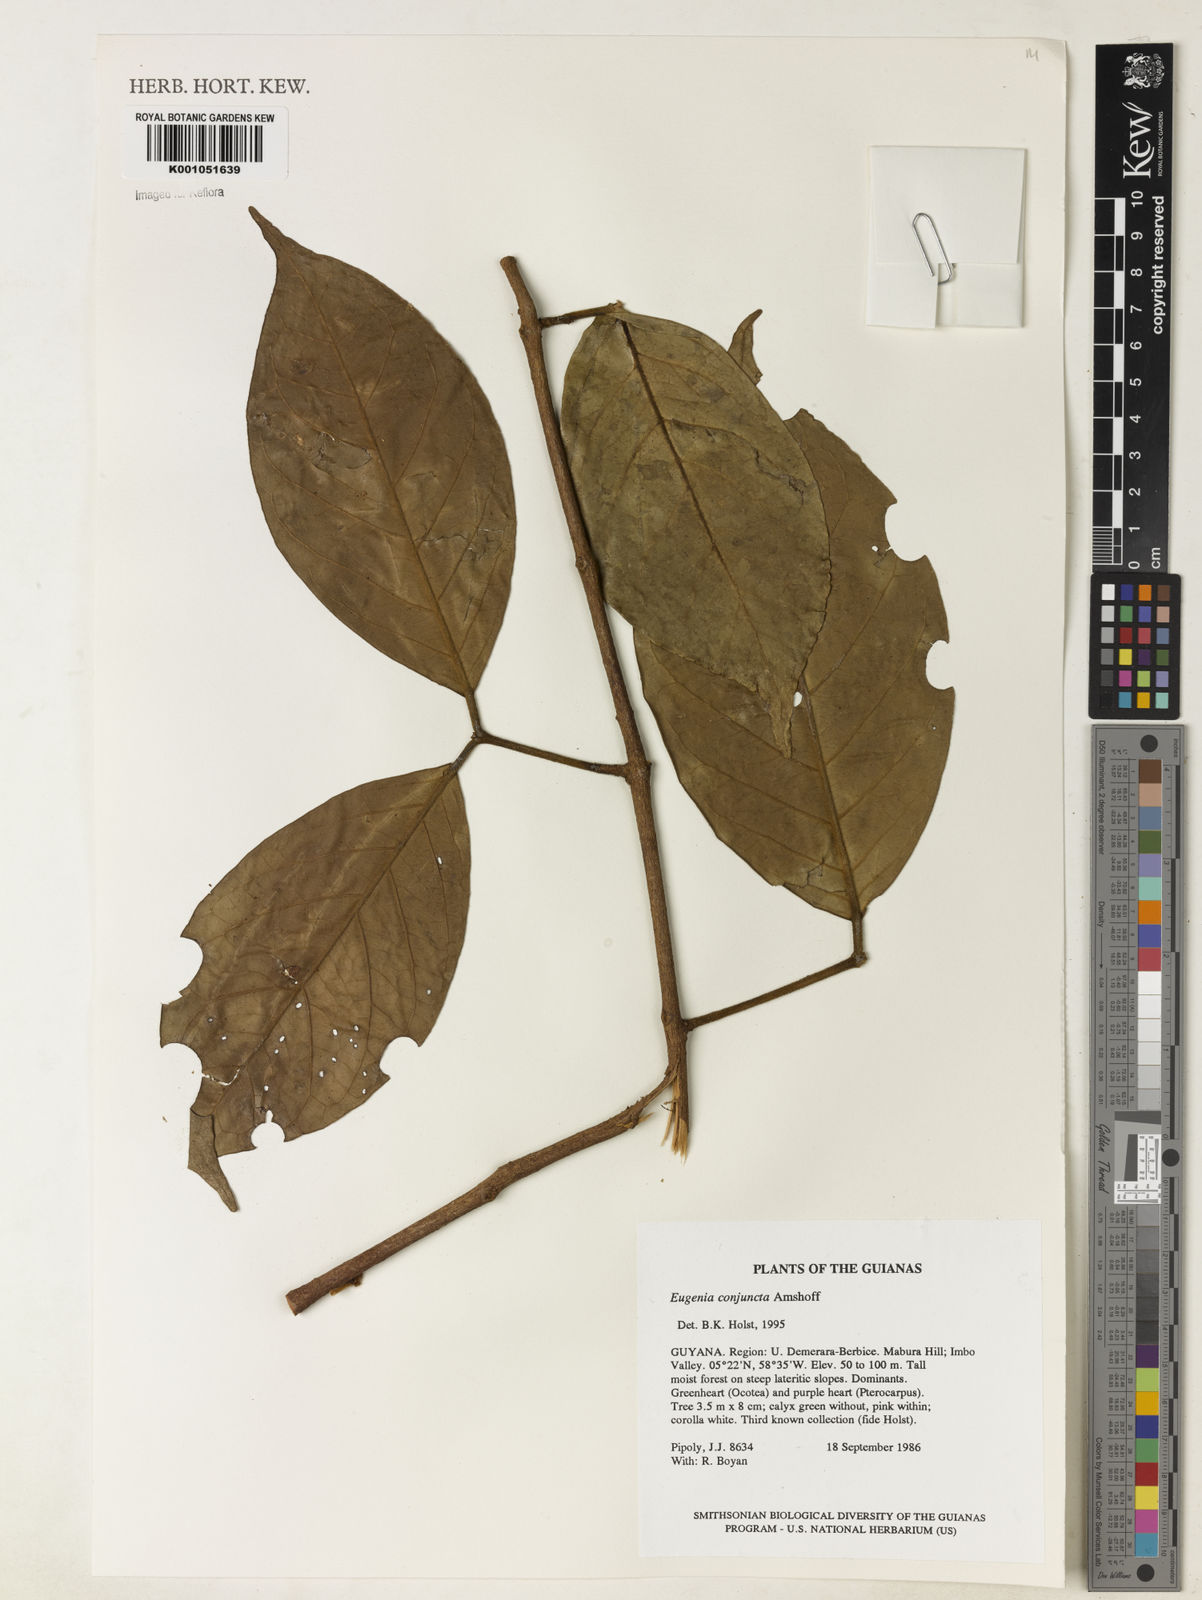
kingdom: Plantae
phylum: Tracheophyta
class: Magnoliopsida
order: Myrtales
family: Myrtaceae
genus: Eugenia
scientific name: Eugenia conjuncta
